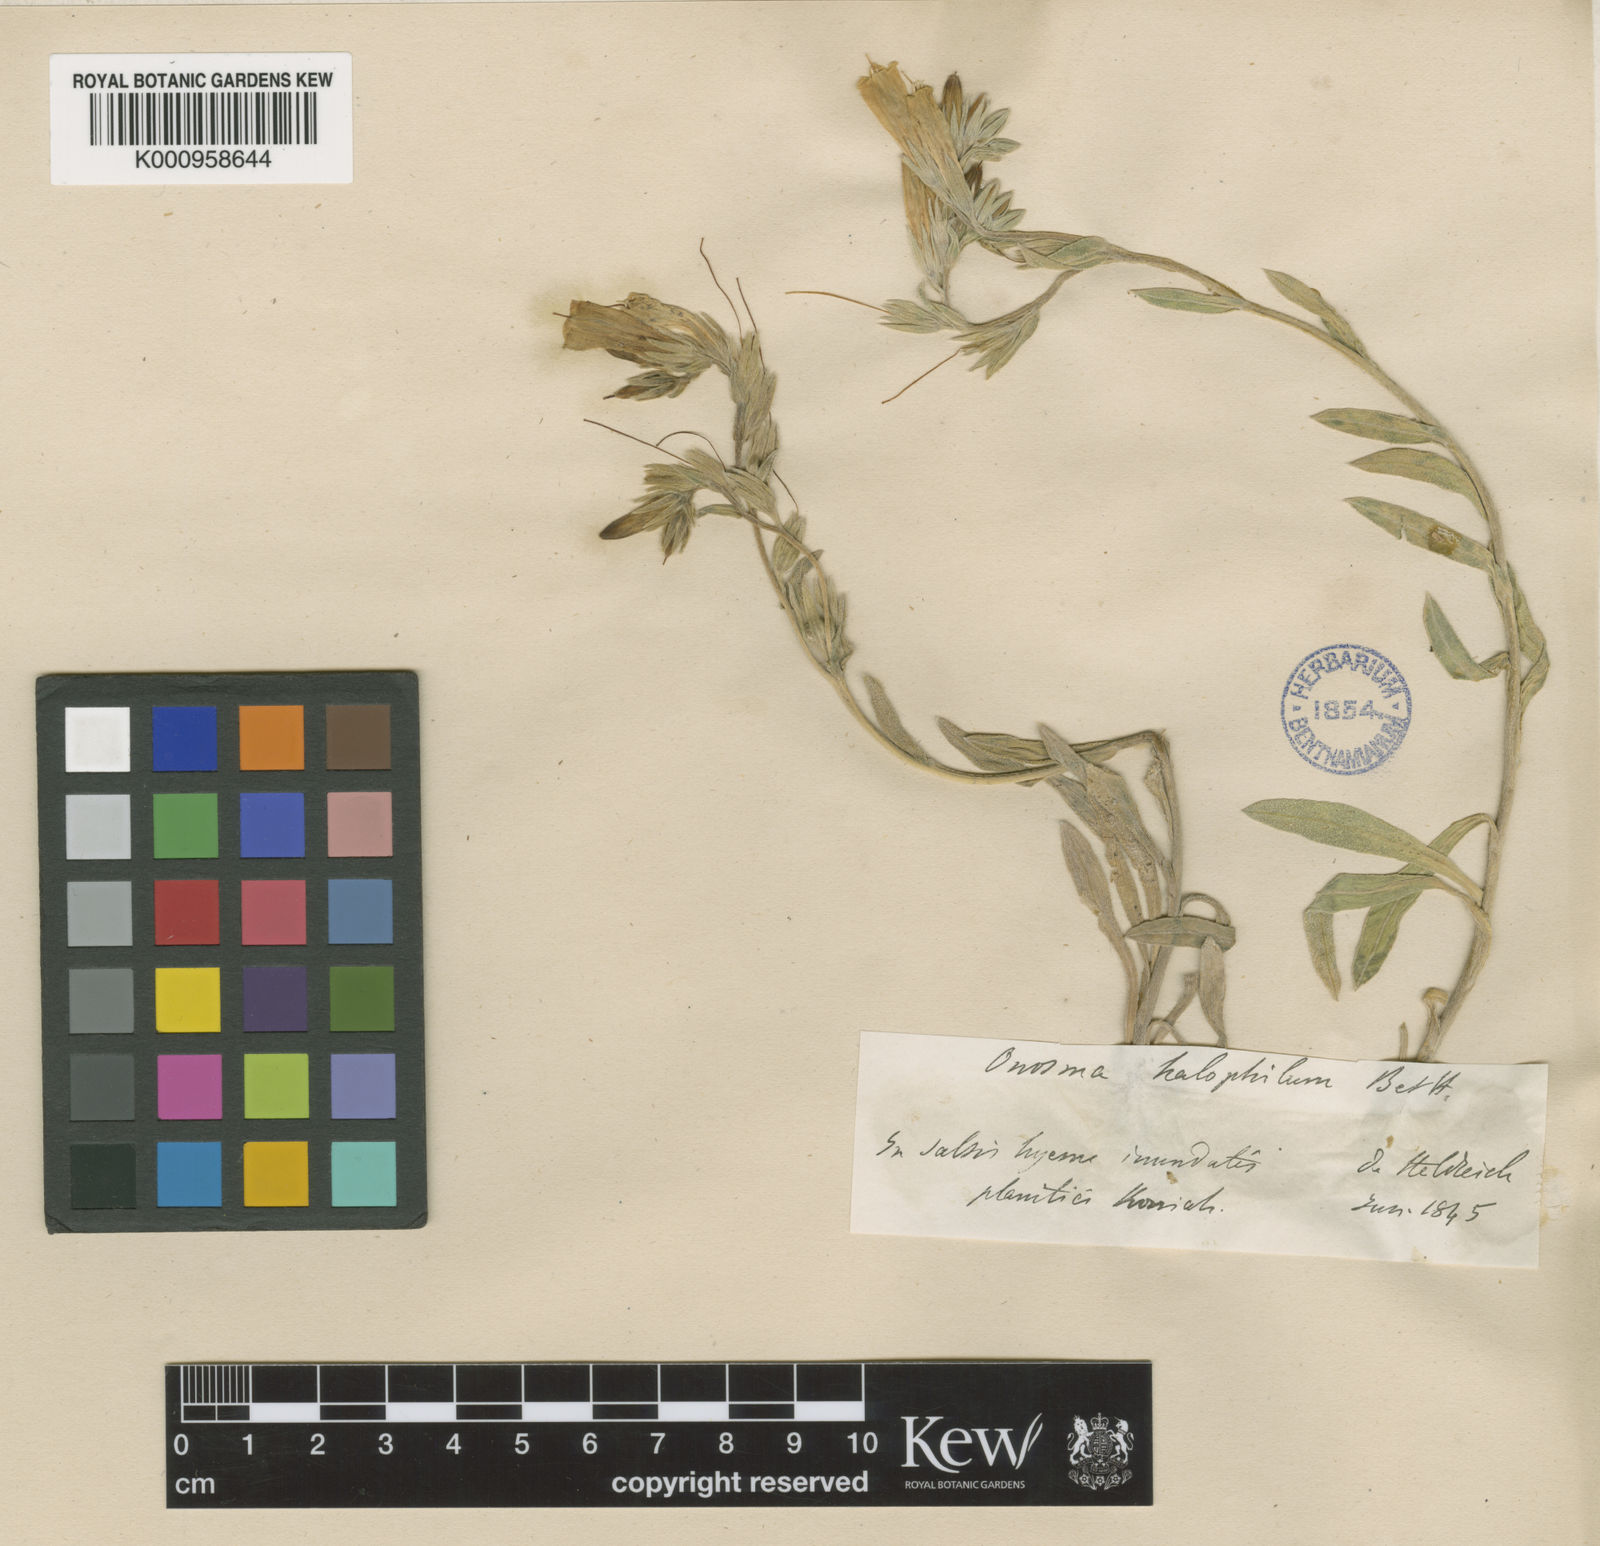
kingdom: Plantae
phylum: Tracheophyta
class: Magnoliopsida
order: Boraginales
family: Boraginaceae
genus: Onosma
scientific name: Onosma halophila
